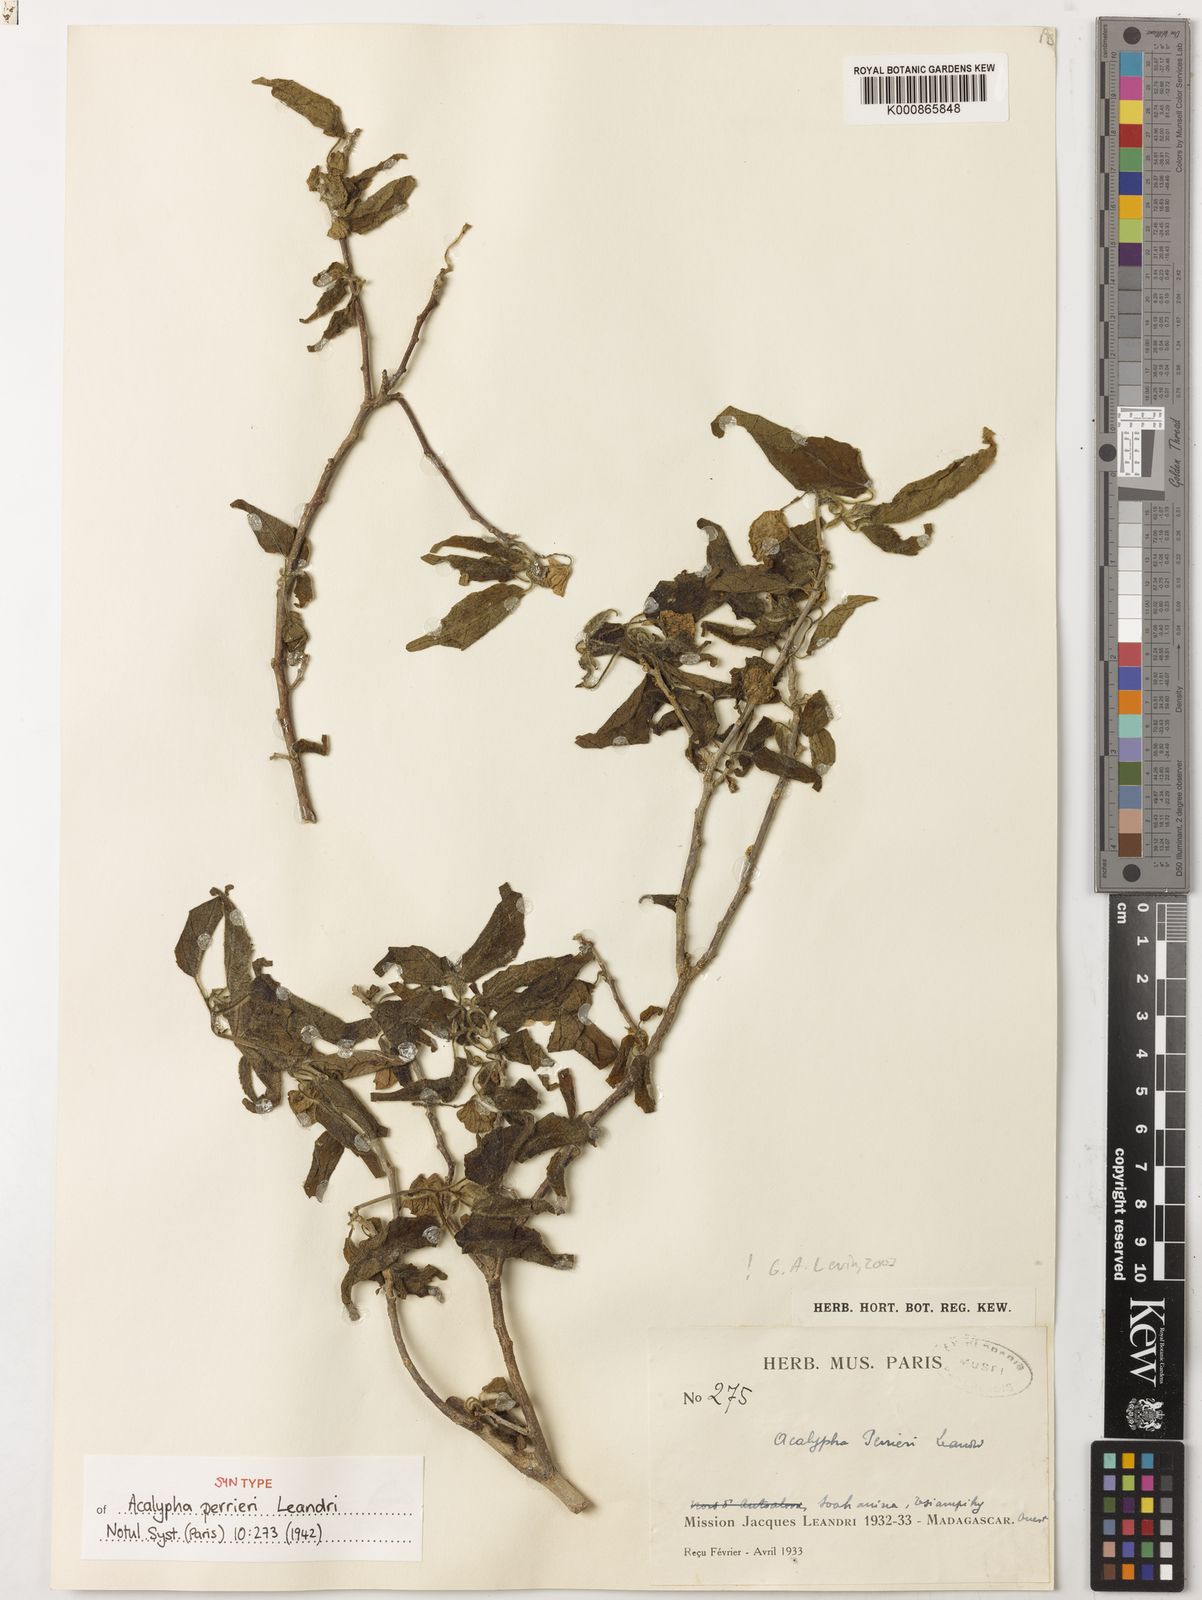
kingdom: Plantae
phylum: Tracheophyta
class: Magnoliopsida
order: Malpighiales
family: Euphorbiaceae
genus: Acalypha
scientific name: Acalypha perrieri
